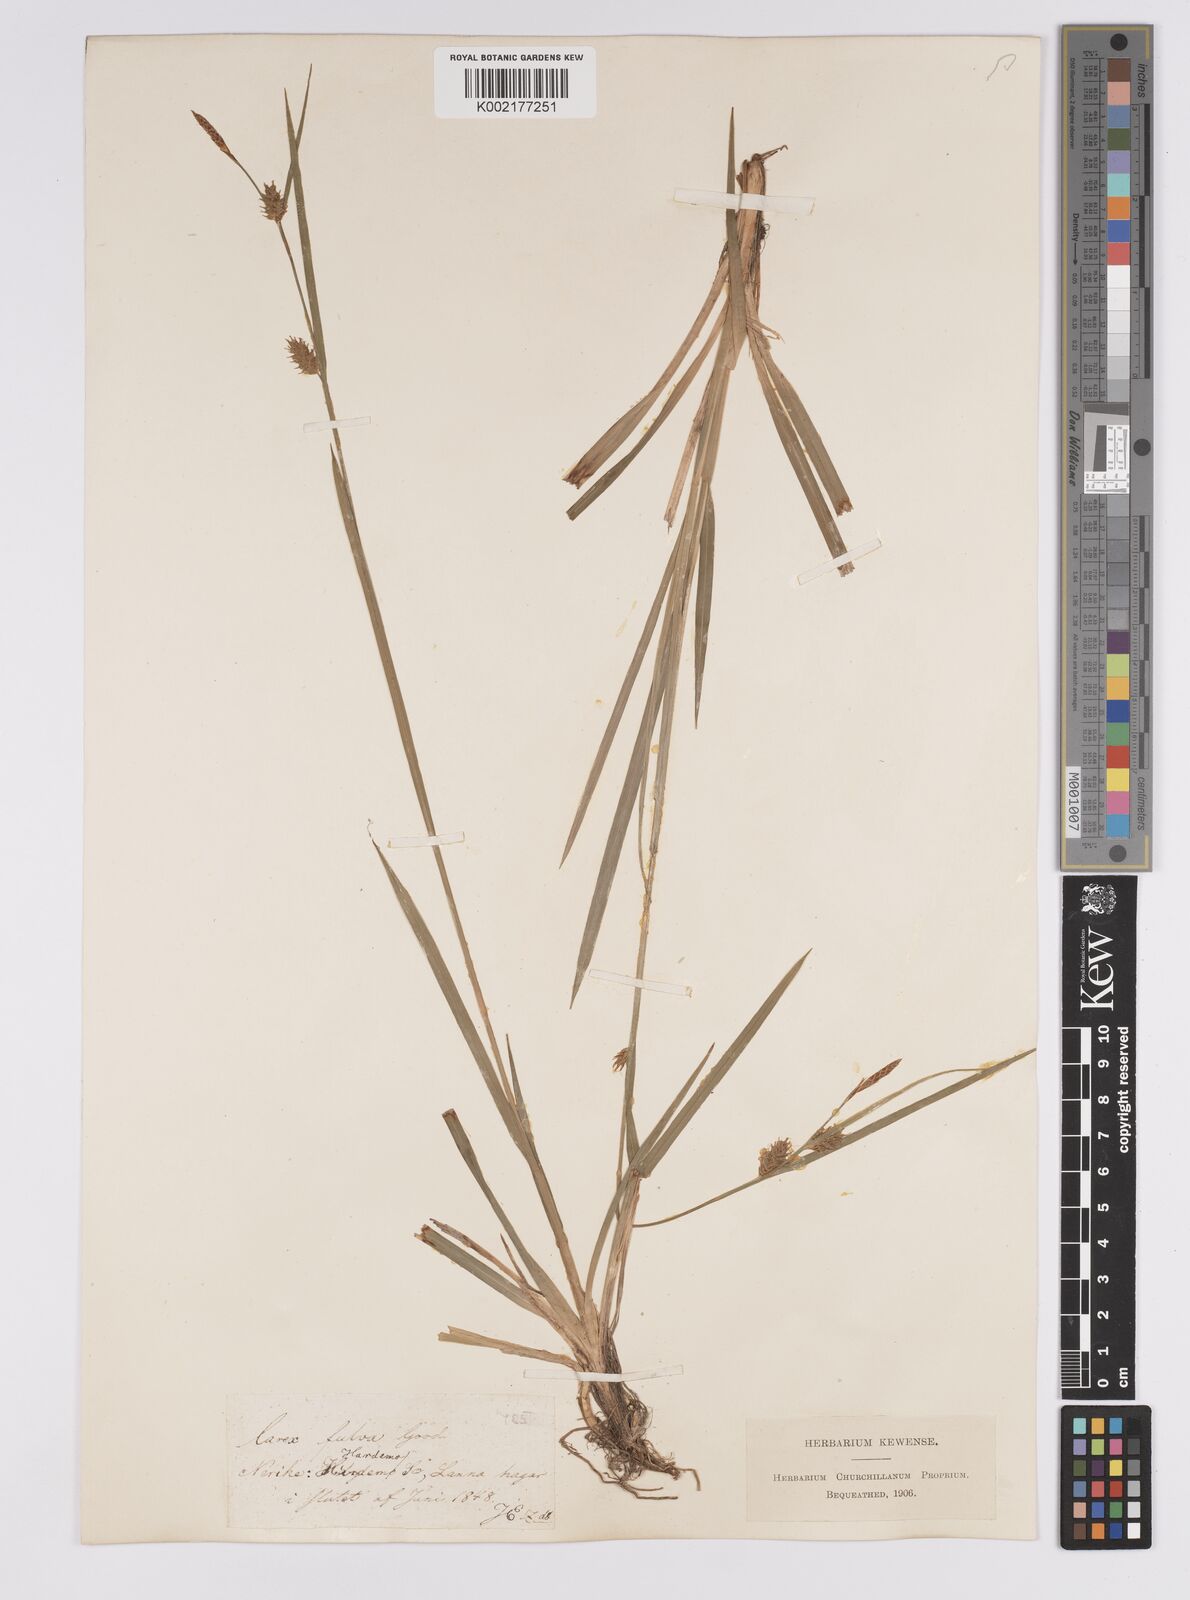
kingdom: Plantae
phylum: Tracheophyta
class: Liliopsida
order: Poales
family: Cyperaceae
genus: Carex
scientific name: Carex hostiana
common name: Tawny sedge
